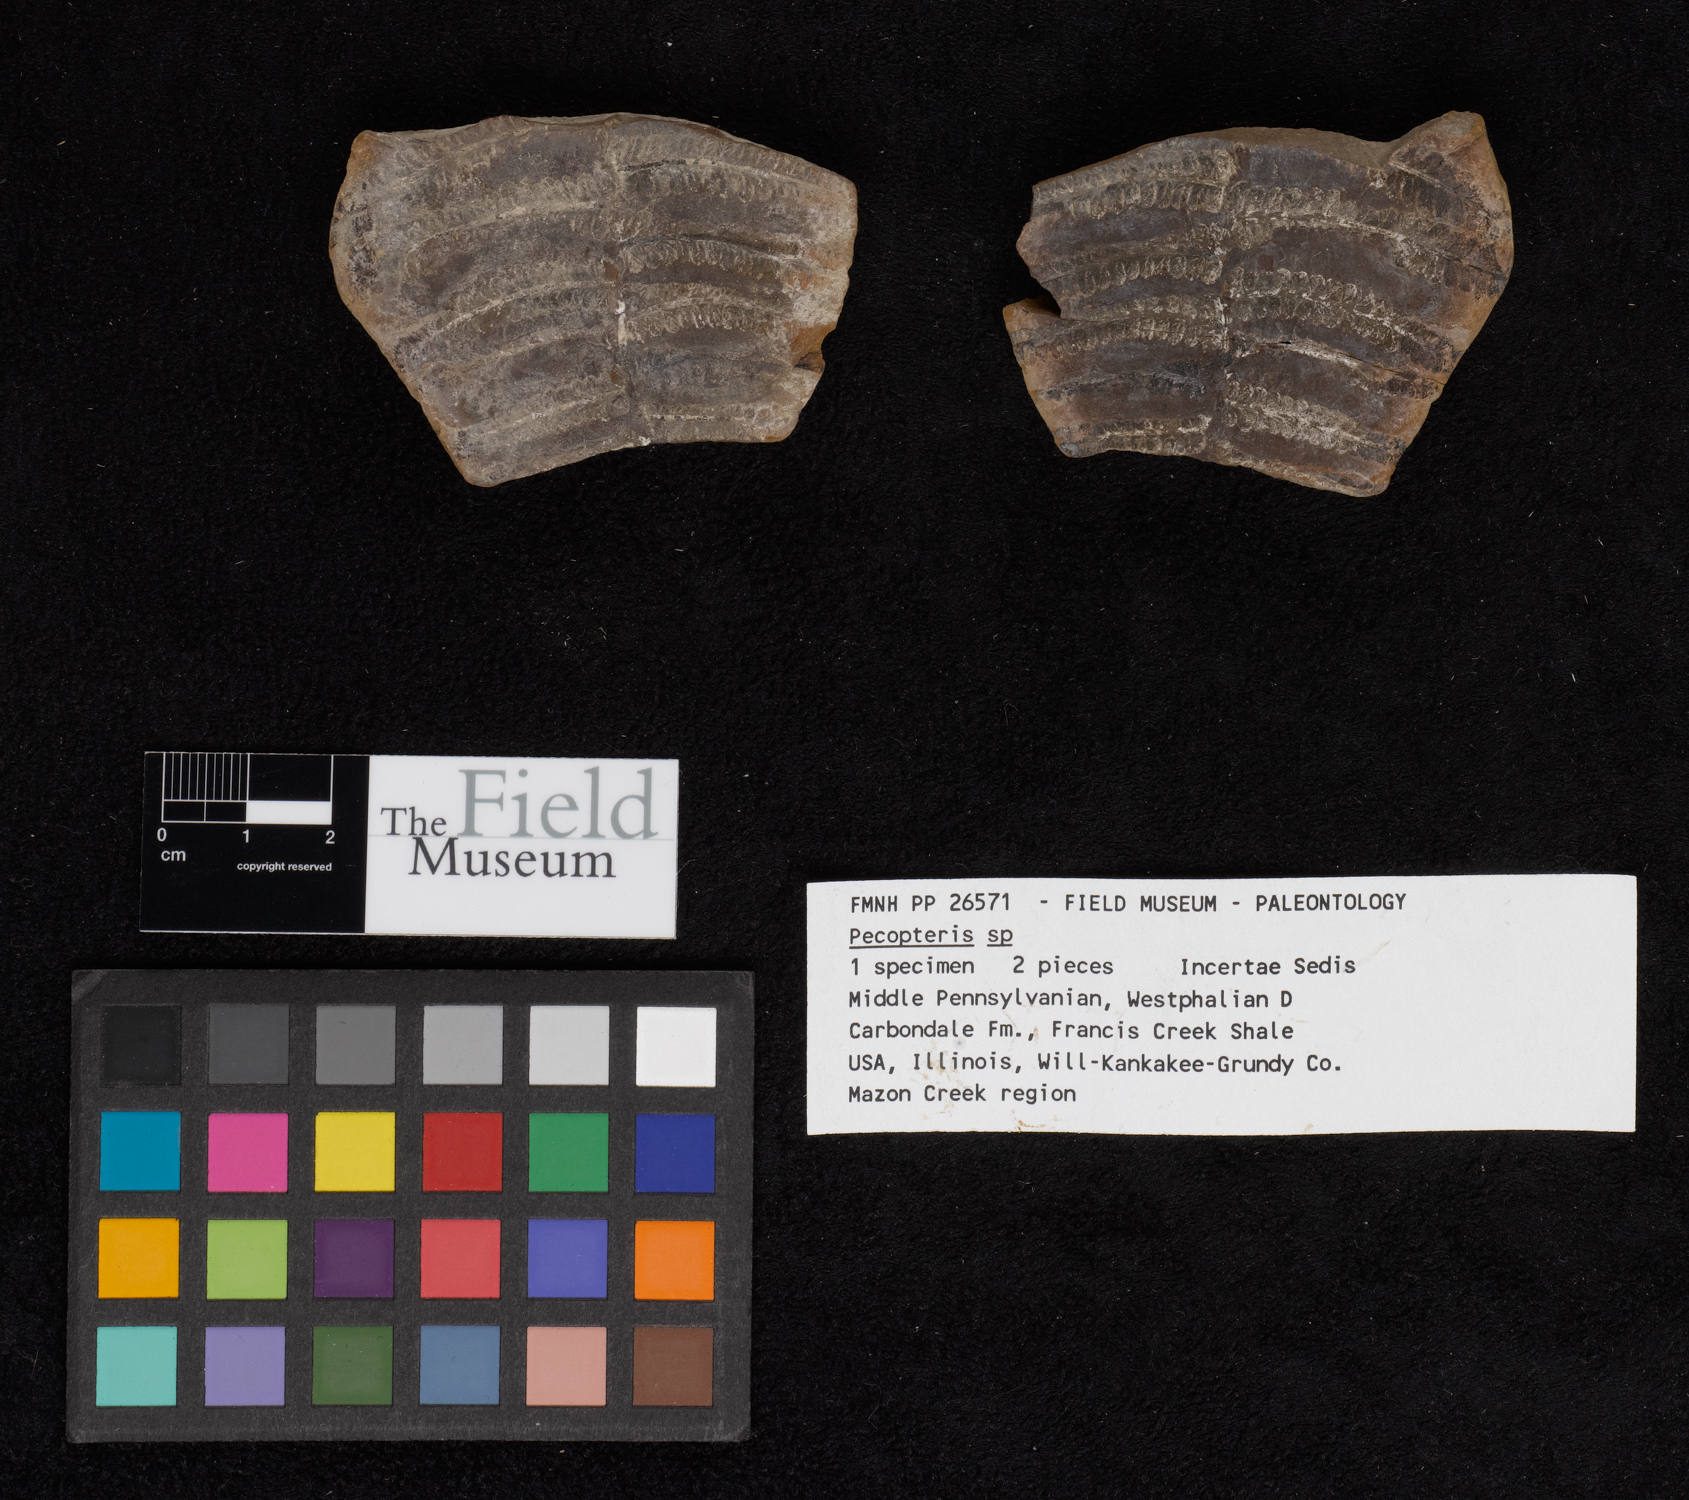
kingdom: Plantae
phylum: Tracheophyta
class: Polypodiopsida
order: Marattiales
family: Asterothecaceae
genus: Pecopteris
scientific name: Pecopteris
